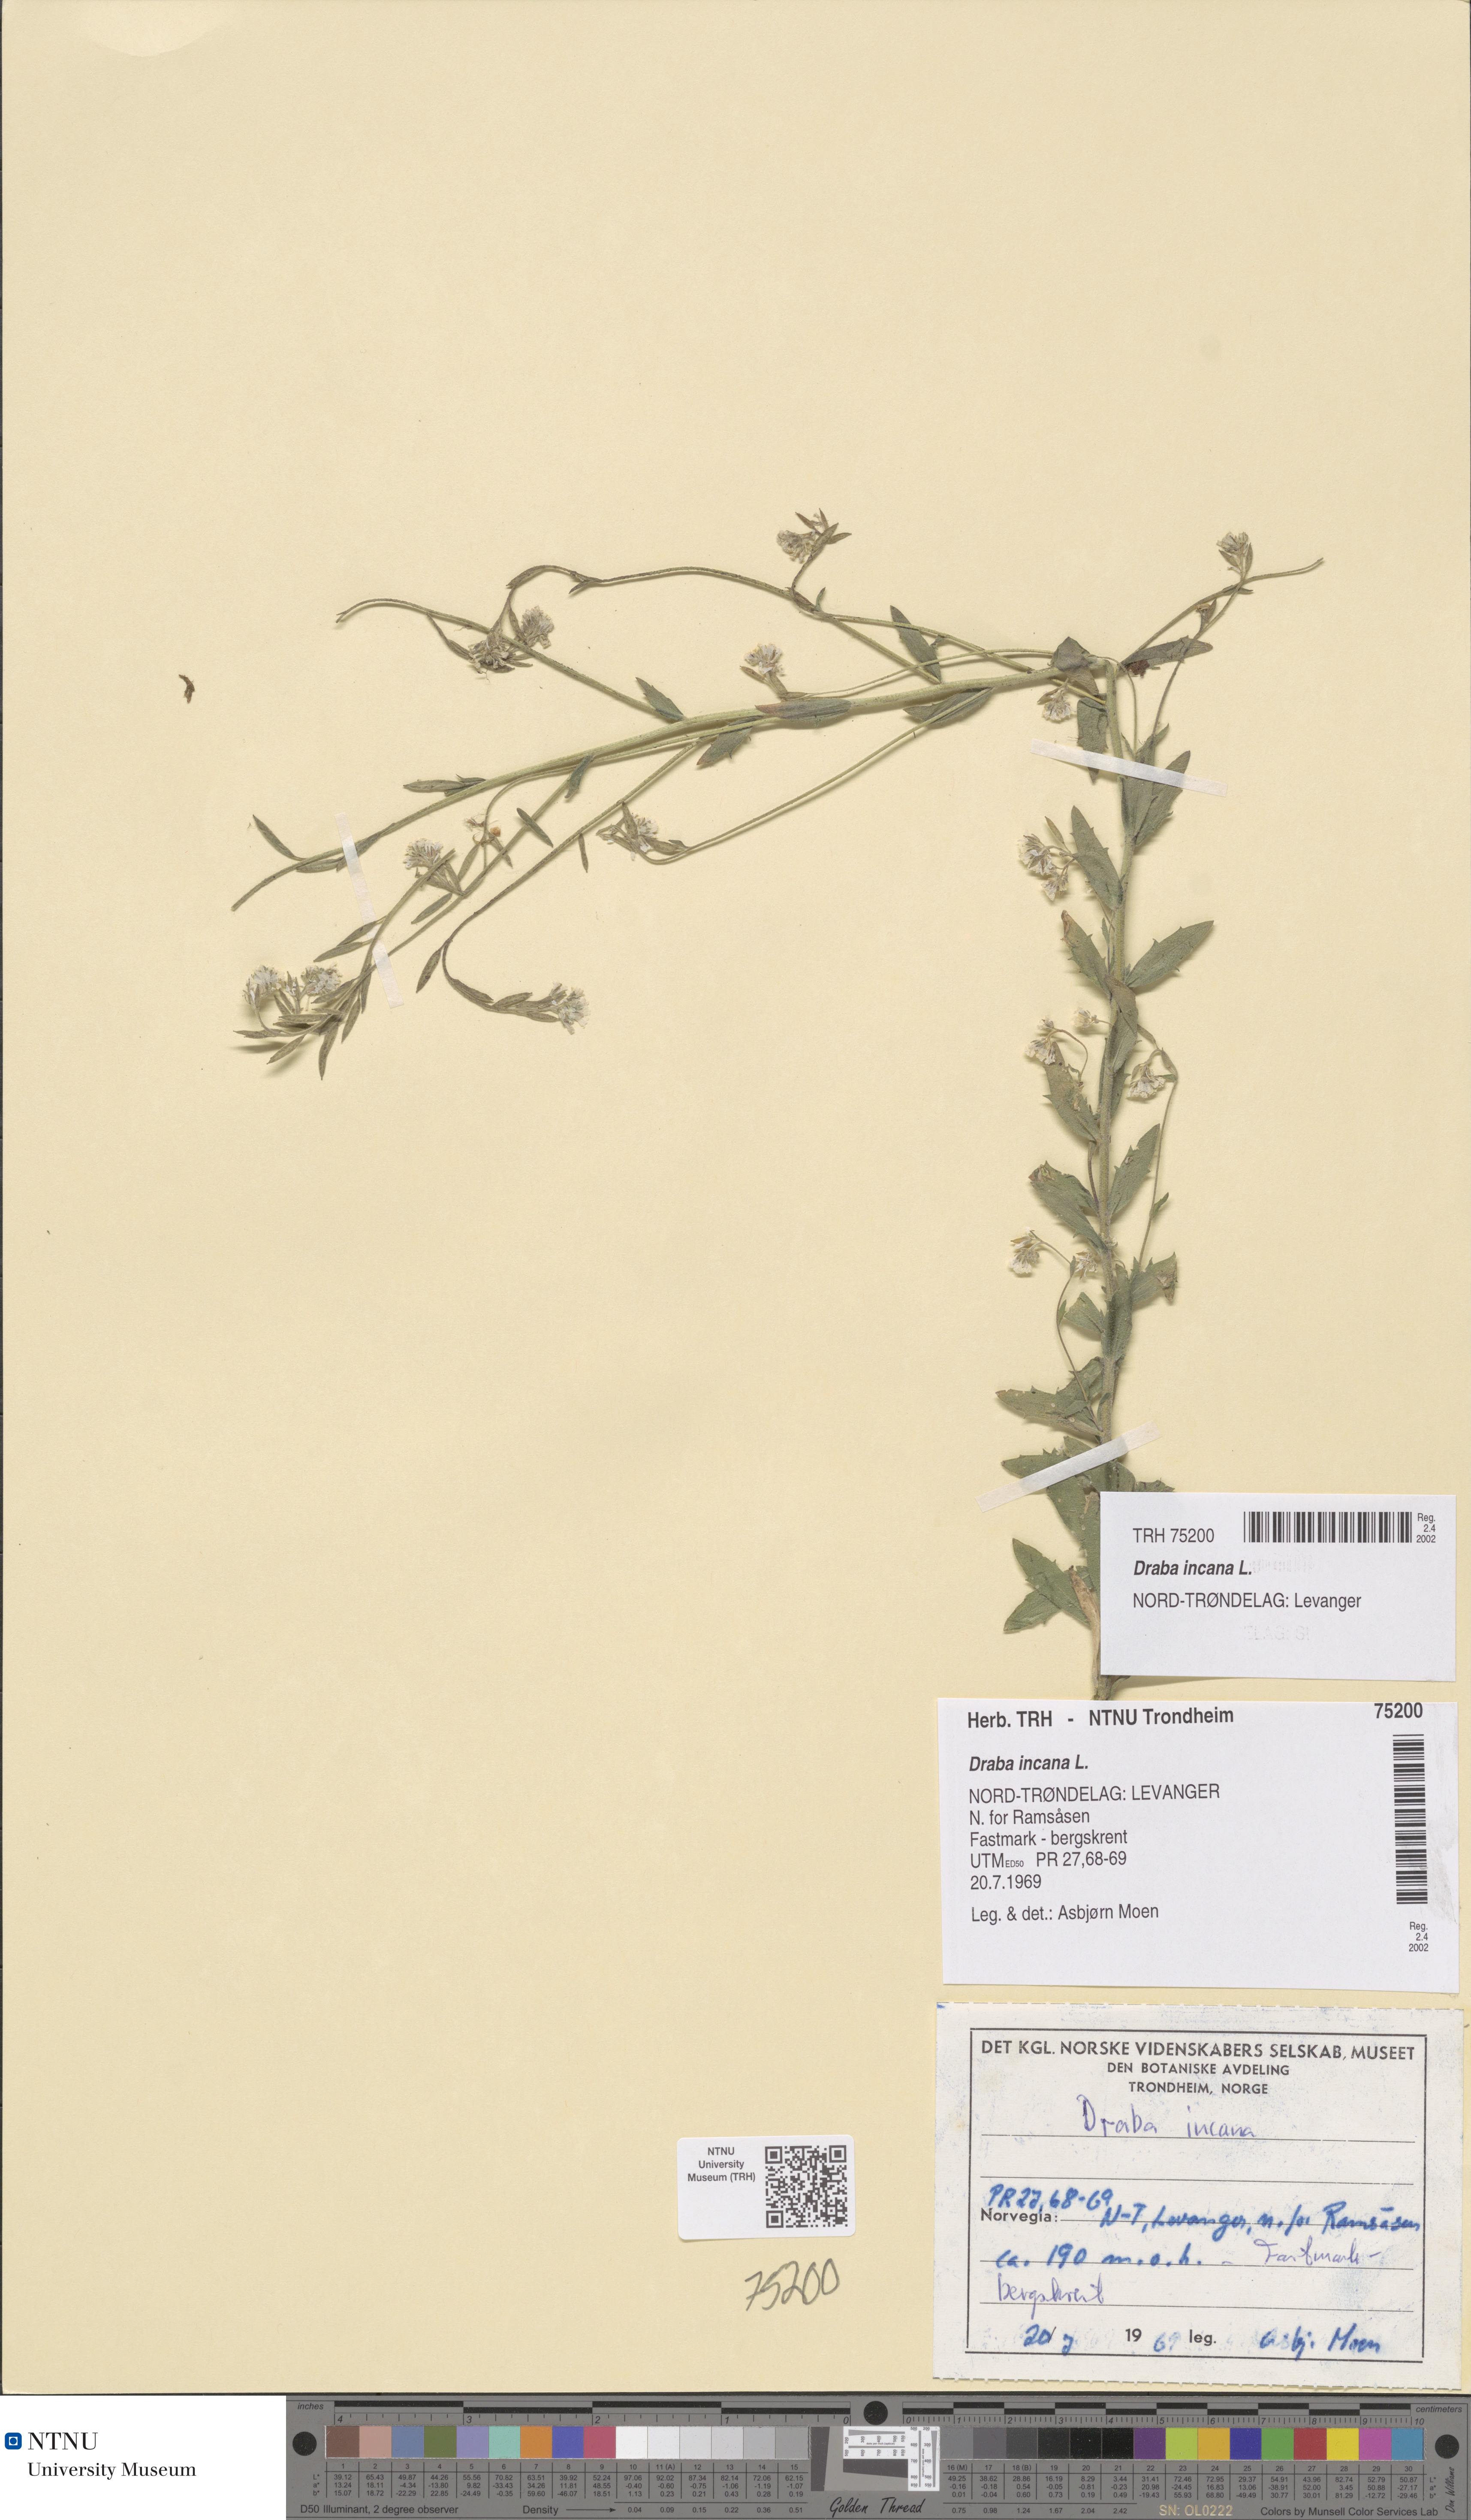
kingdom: Plantae
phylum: Tracheophyta
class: Magnoliopsida
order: Brassicales
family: Brassicaceae
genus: Draba
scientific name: Draba incana
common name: Hoary whitlow-grass
